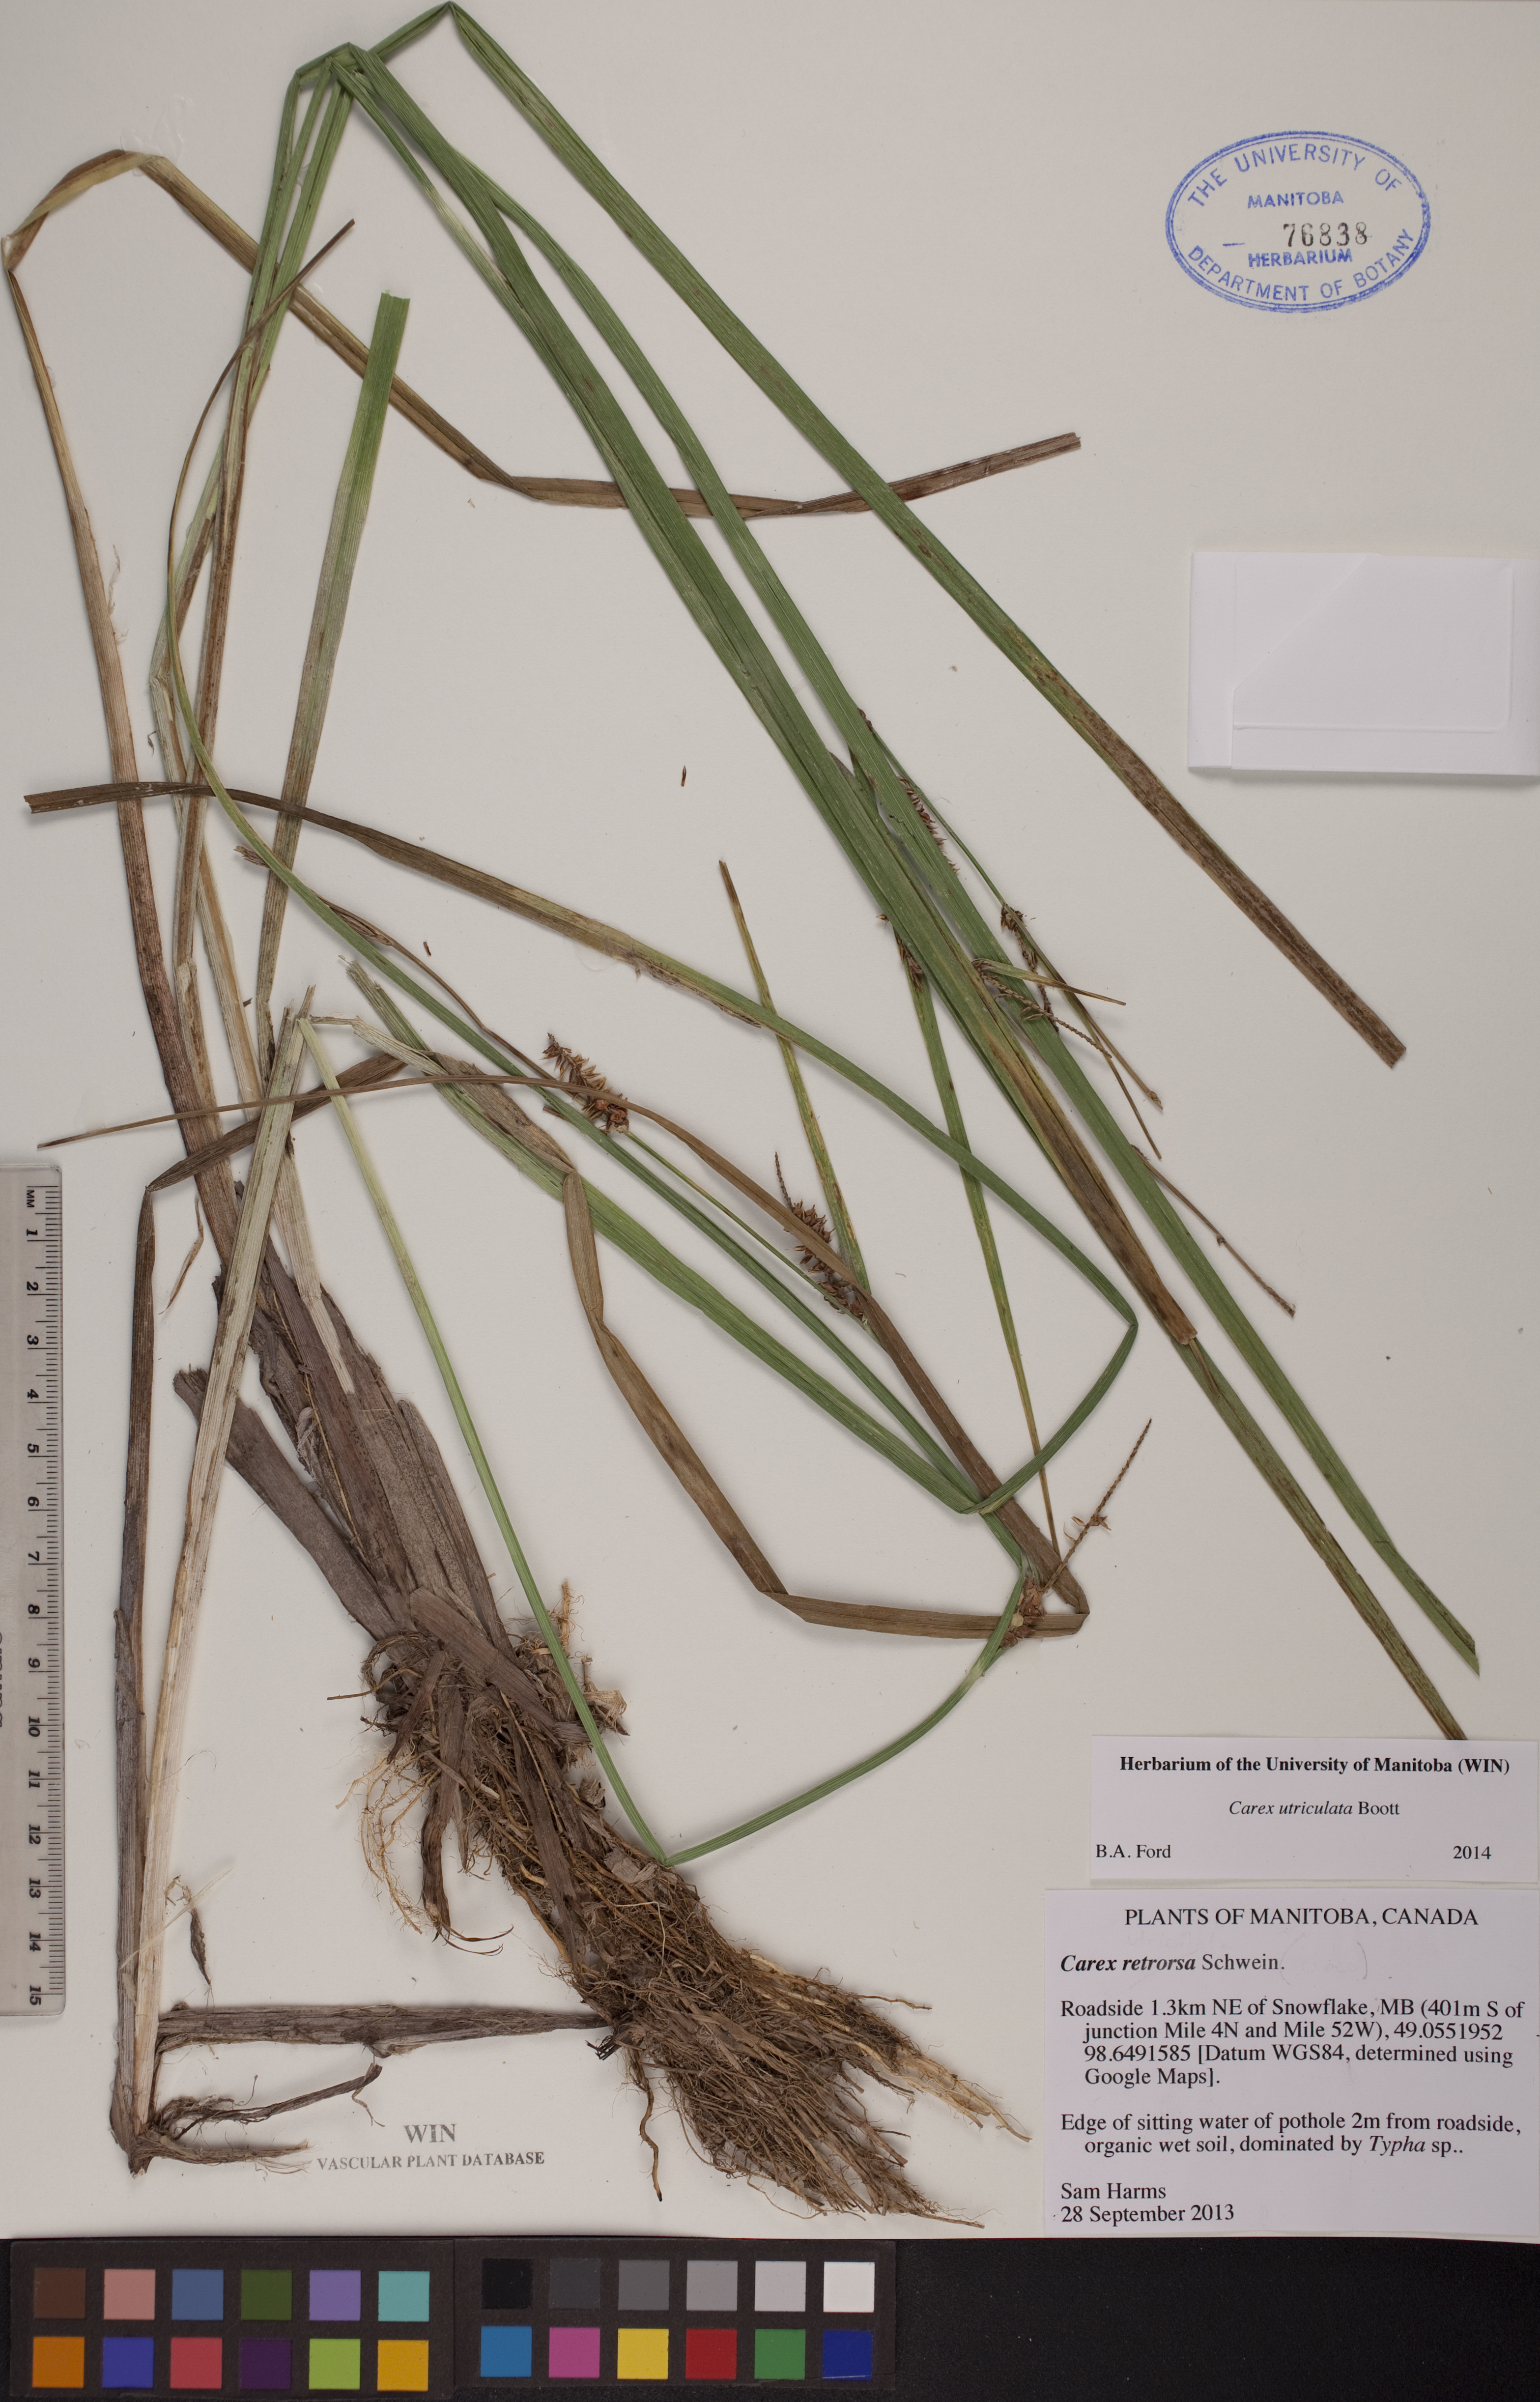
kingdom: Plantae
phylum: Tracheophyta
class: Liliopsida
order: Poales
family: Cyperaceae
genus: Carex
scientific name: Carex utriculata
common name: Beaked sedge
